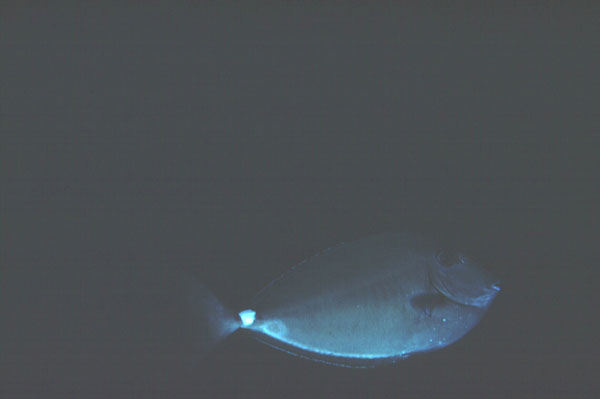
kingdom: Animalia
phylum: Chordata
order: Perciformes
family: Acanthuridae
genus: Naso
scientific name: Naso annulatus
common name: Whitemargin unicornfish
